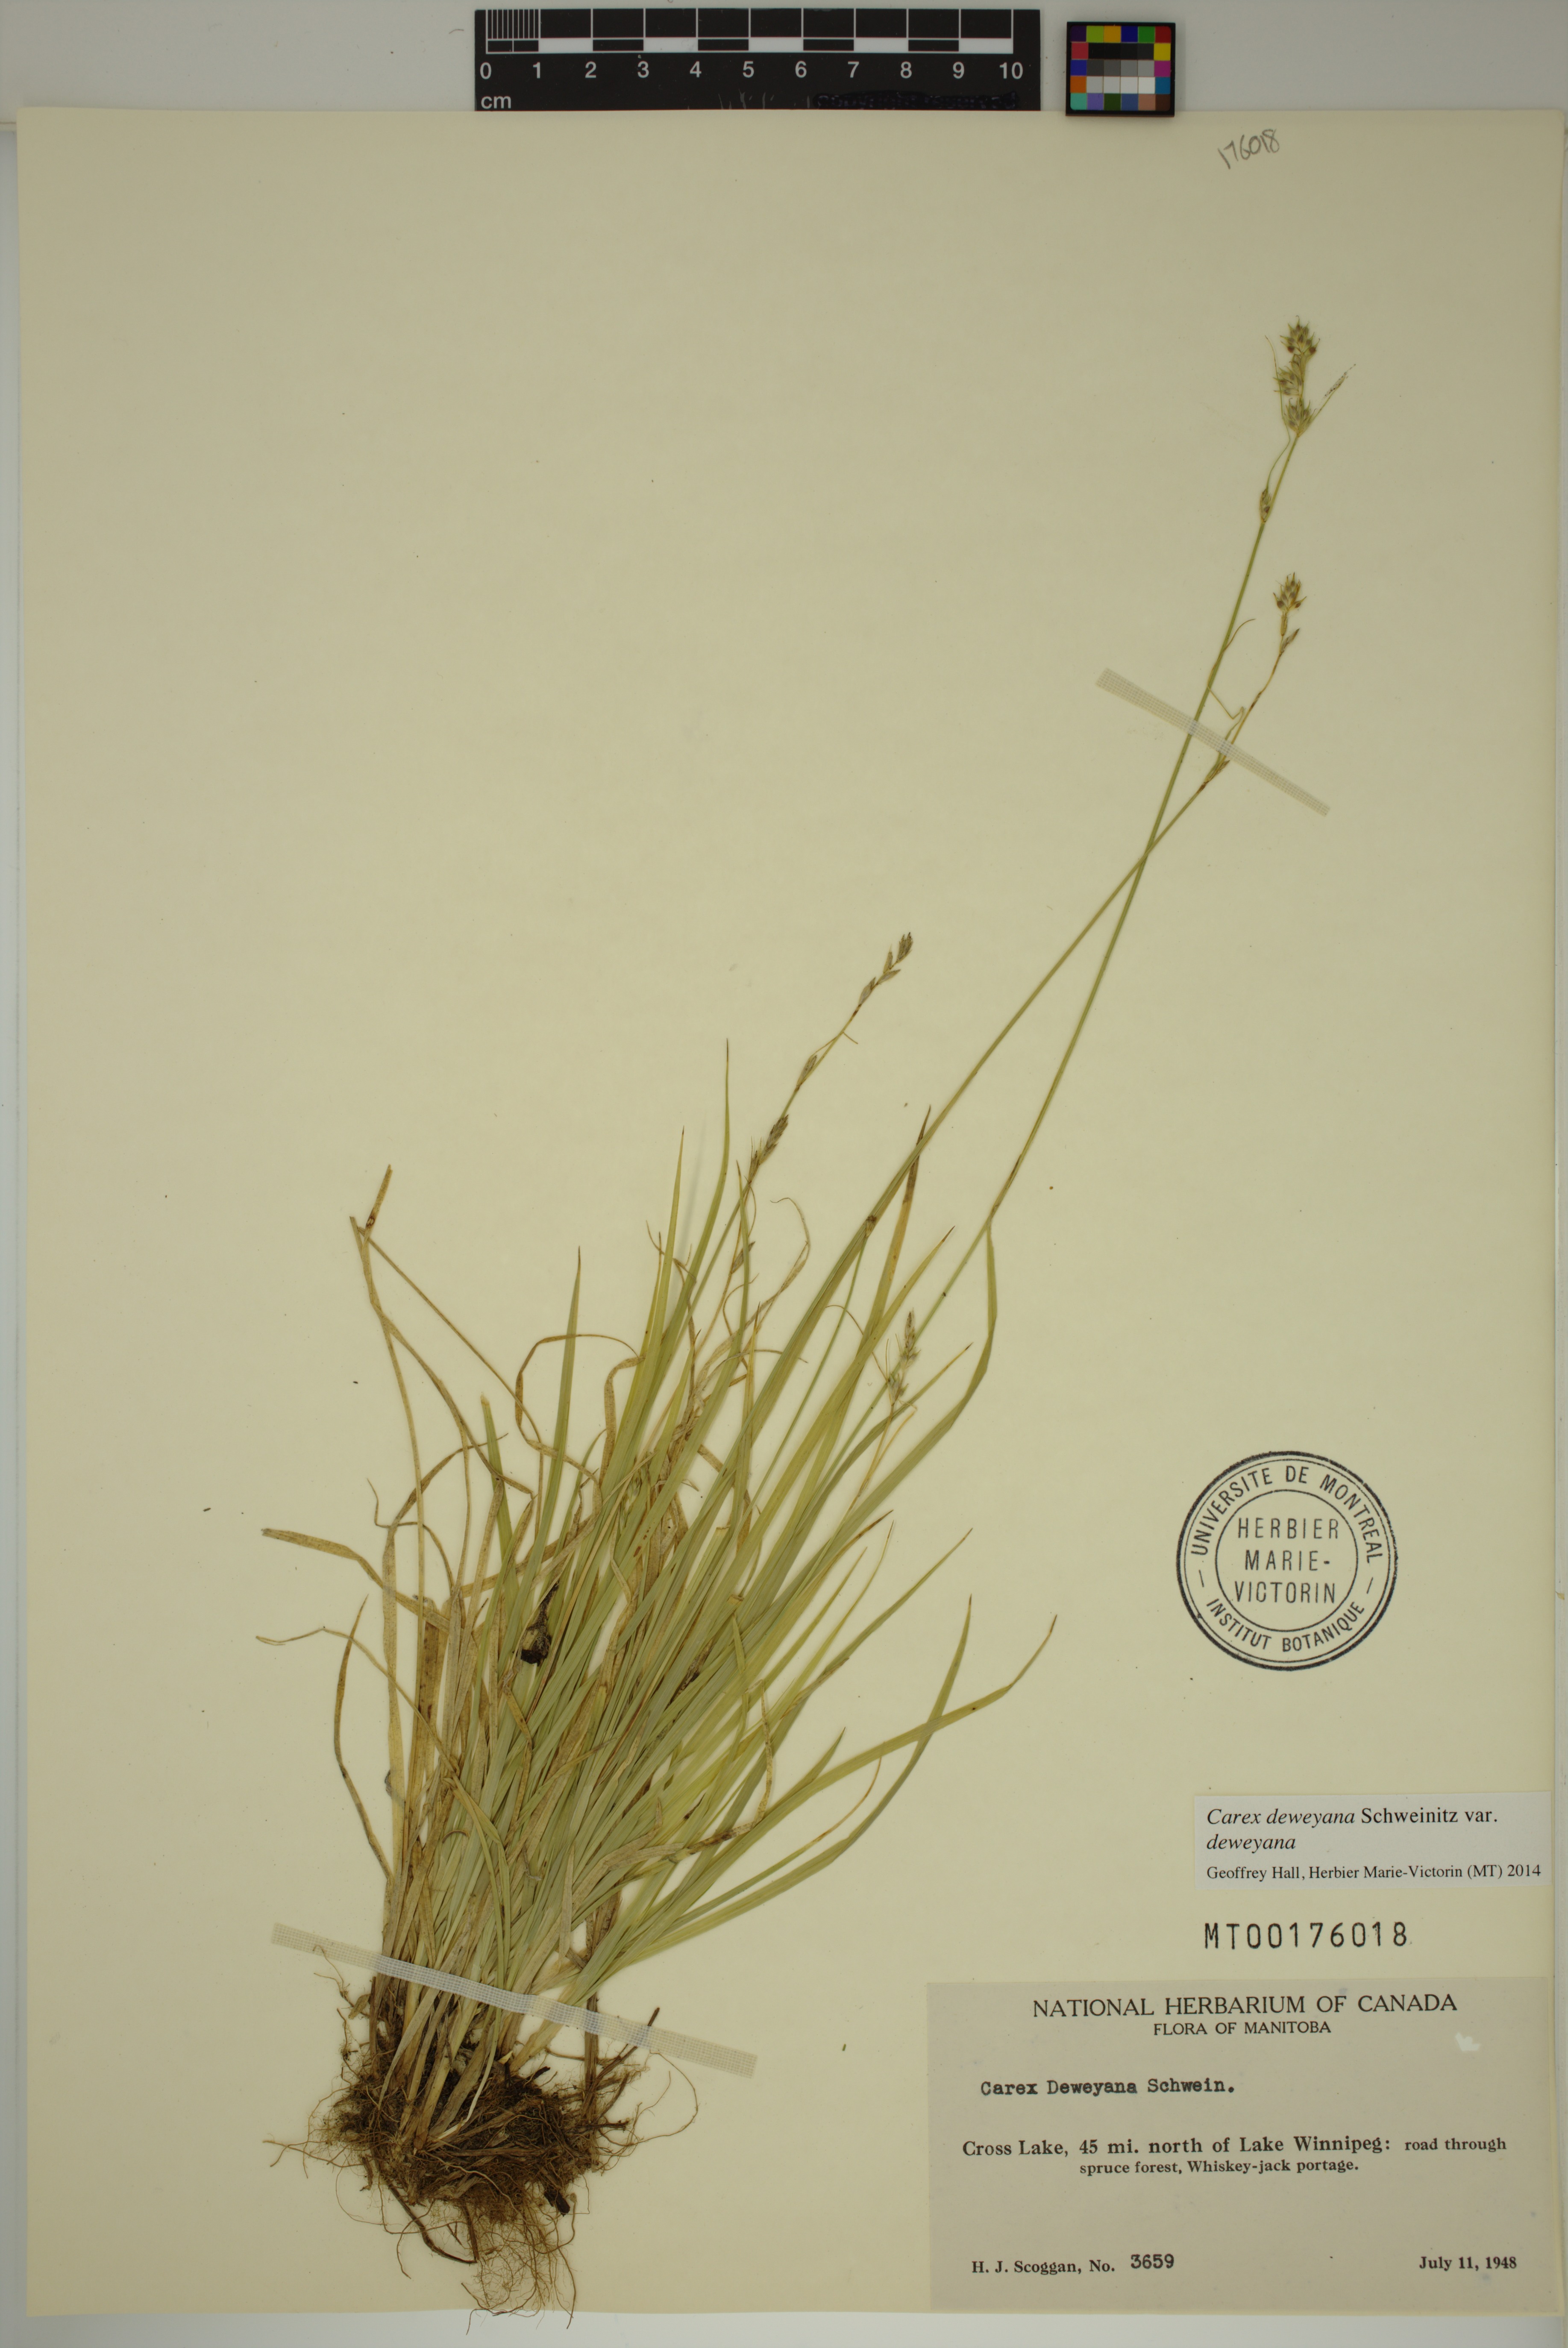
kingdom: Plantae
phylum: Tracheophyta
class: Liliopsida
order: Poales
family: Cyperaceae
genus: Carex
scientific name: Carex deweyana
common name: Dewey's sedge
